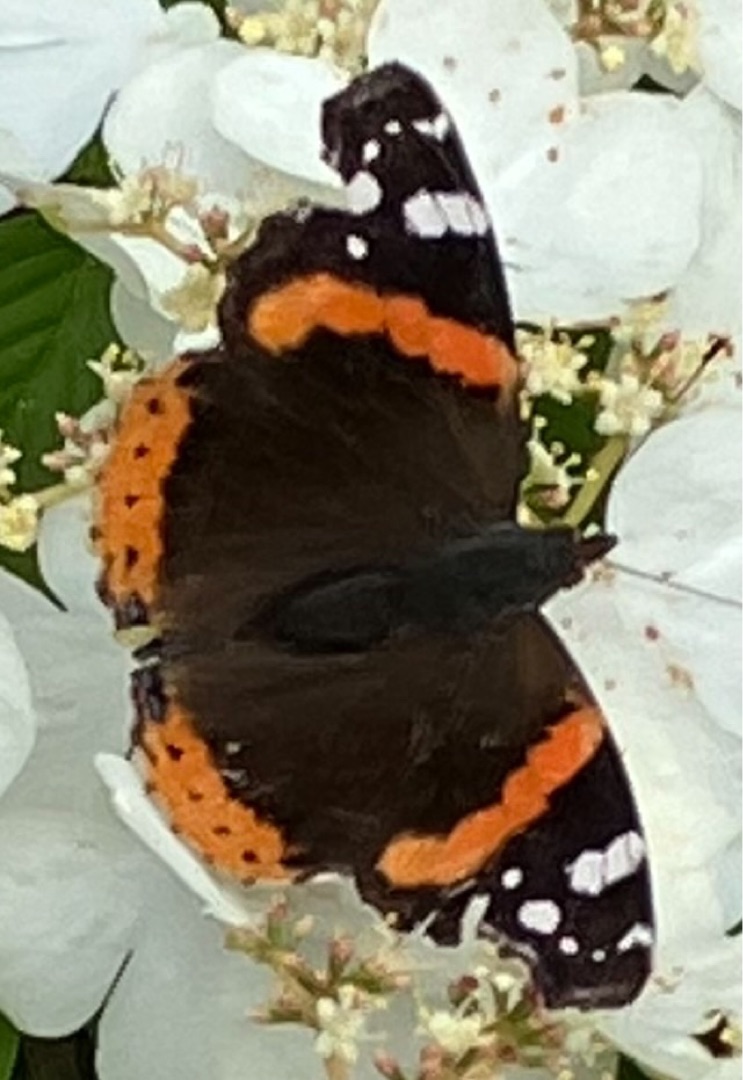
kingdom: Animalia
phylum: Arthropoda
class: Insecta
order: Lepidoptera
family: Nymphalidae
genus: Vanessa
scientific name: Vanessa atalanta
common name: Admiral
